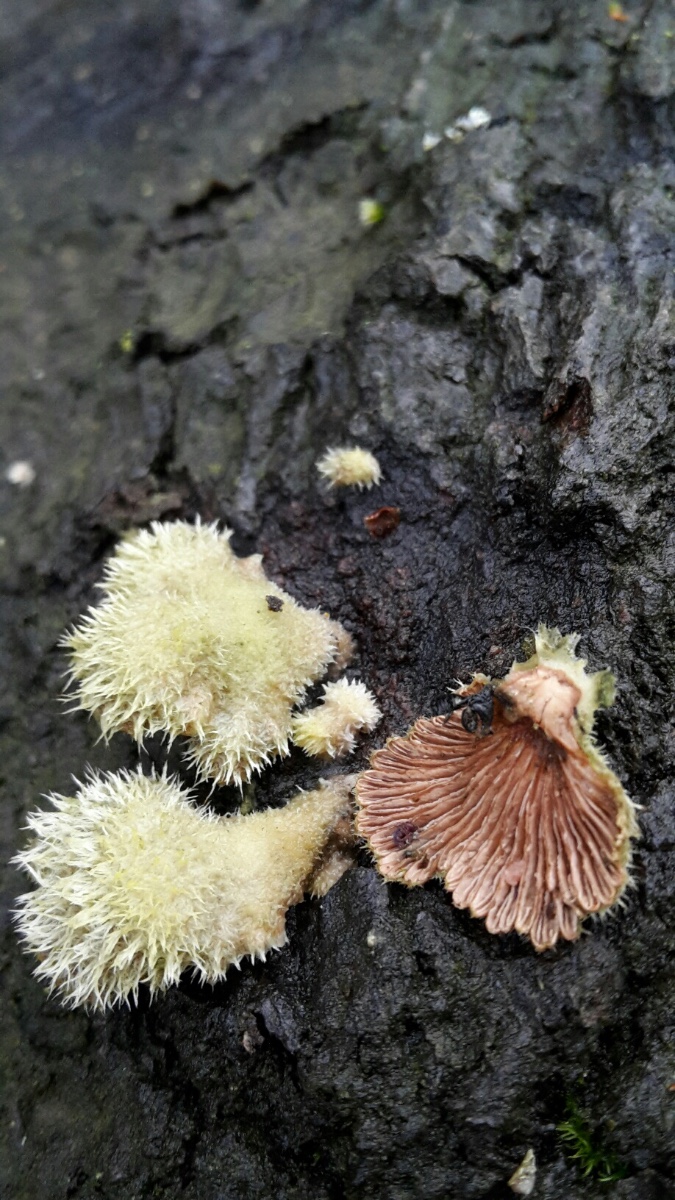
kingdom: Fungi
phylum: Basidiomycota
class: Agaricomycetes
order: Agaricales
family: Schizophyllaceae
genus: Schizophyllum
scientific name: Schizophyllum commune
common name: kløvblad
